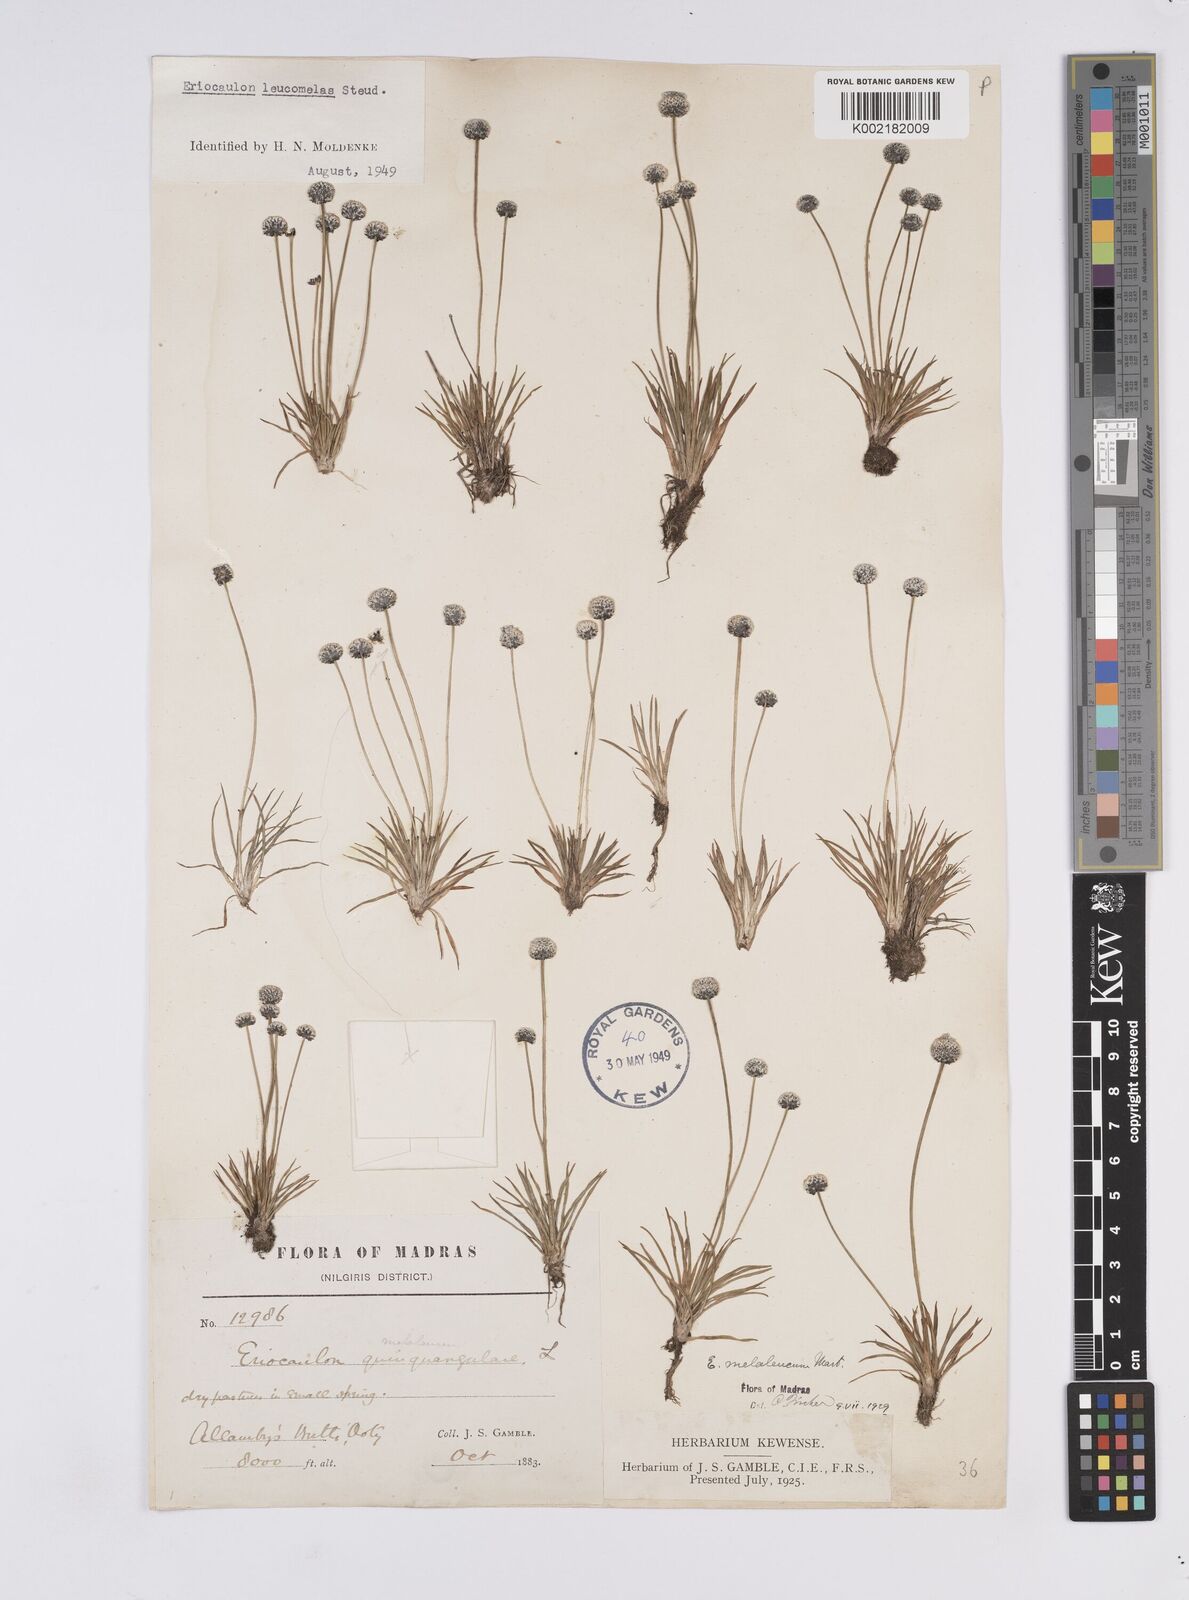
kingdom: Plantae
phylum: Tracheophyta
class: Liliopsida
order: Poales
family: Eriocaulaceae
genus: Eriocaulon
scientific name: Eriocaulon leucomelas
